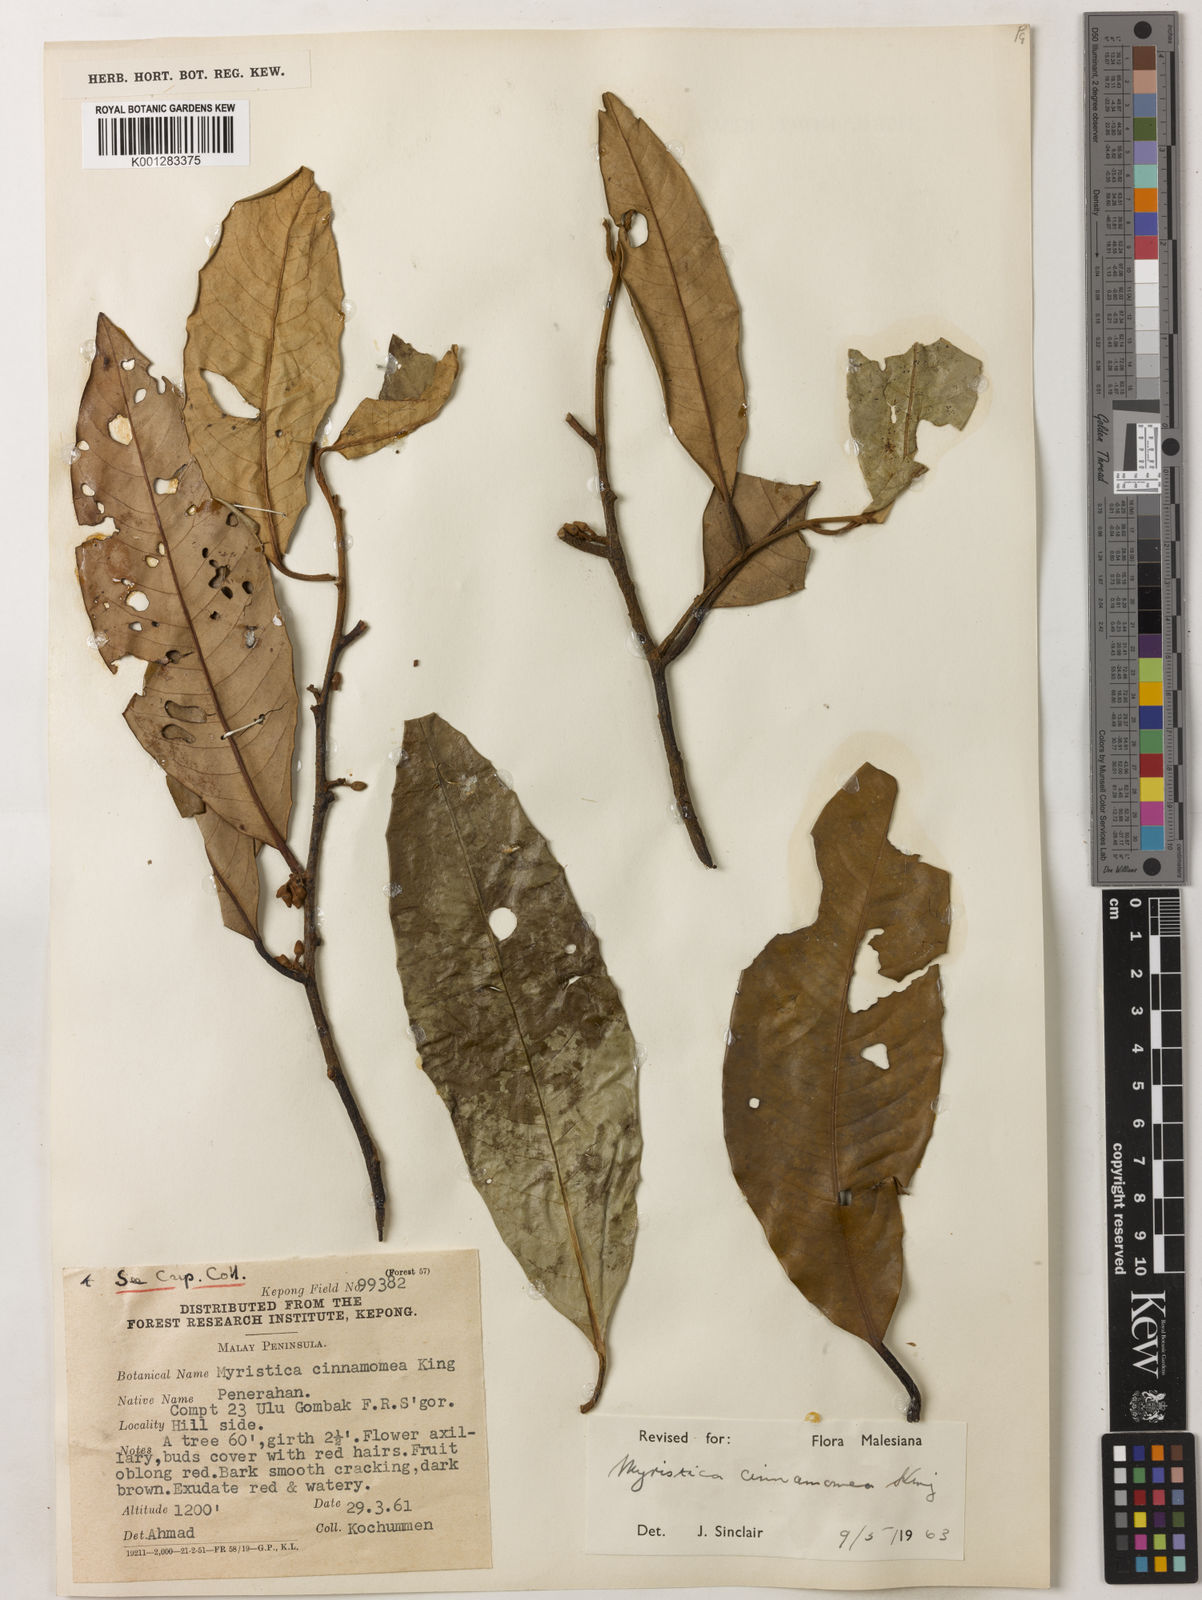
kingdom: Plantae
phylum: Tracheophyta
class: Magnoliopsida
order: Magnoliales
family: Myristicaceae
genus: Myristica
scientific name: Myristica cinnamomea
